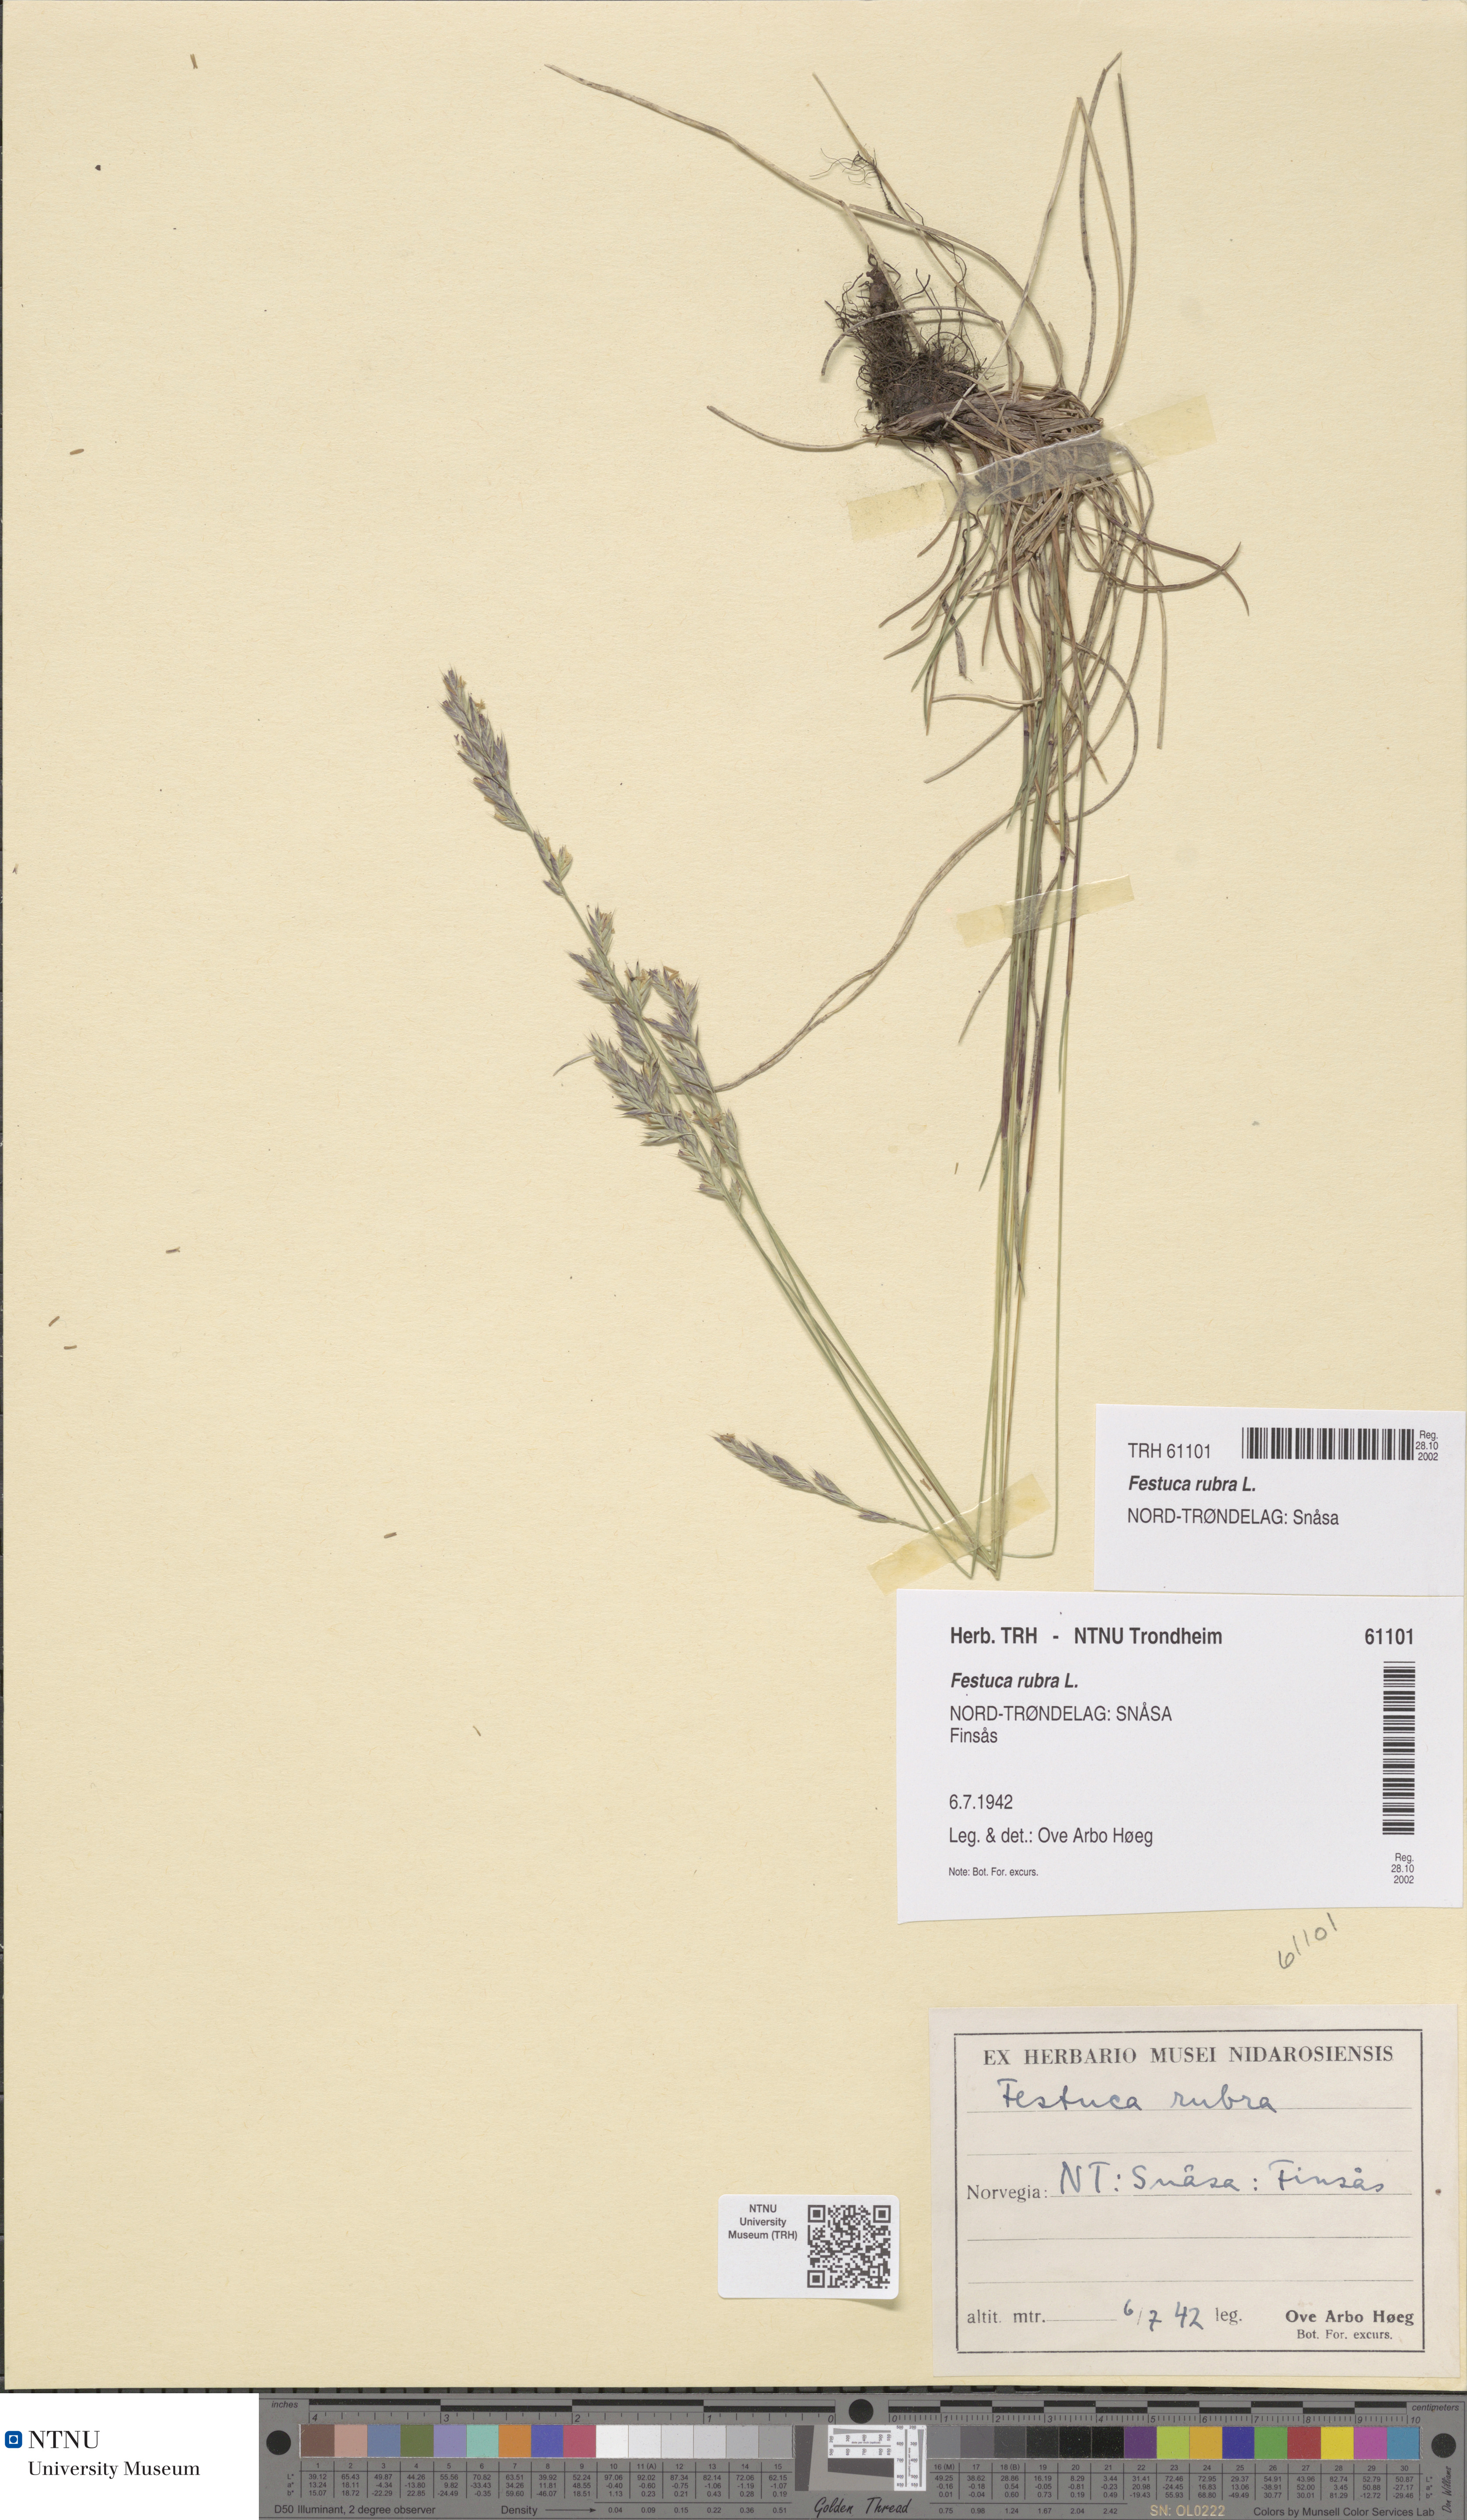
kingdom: Plantae
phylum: Tracheophyta
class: Liliopsida
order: Poales
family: Poaceae
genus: Festuca
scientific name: Festuca rubra
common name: Red fescue
